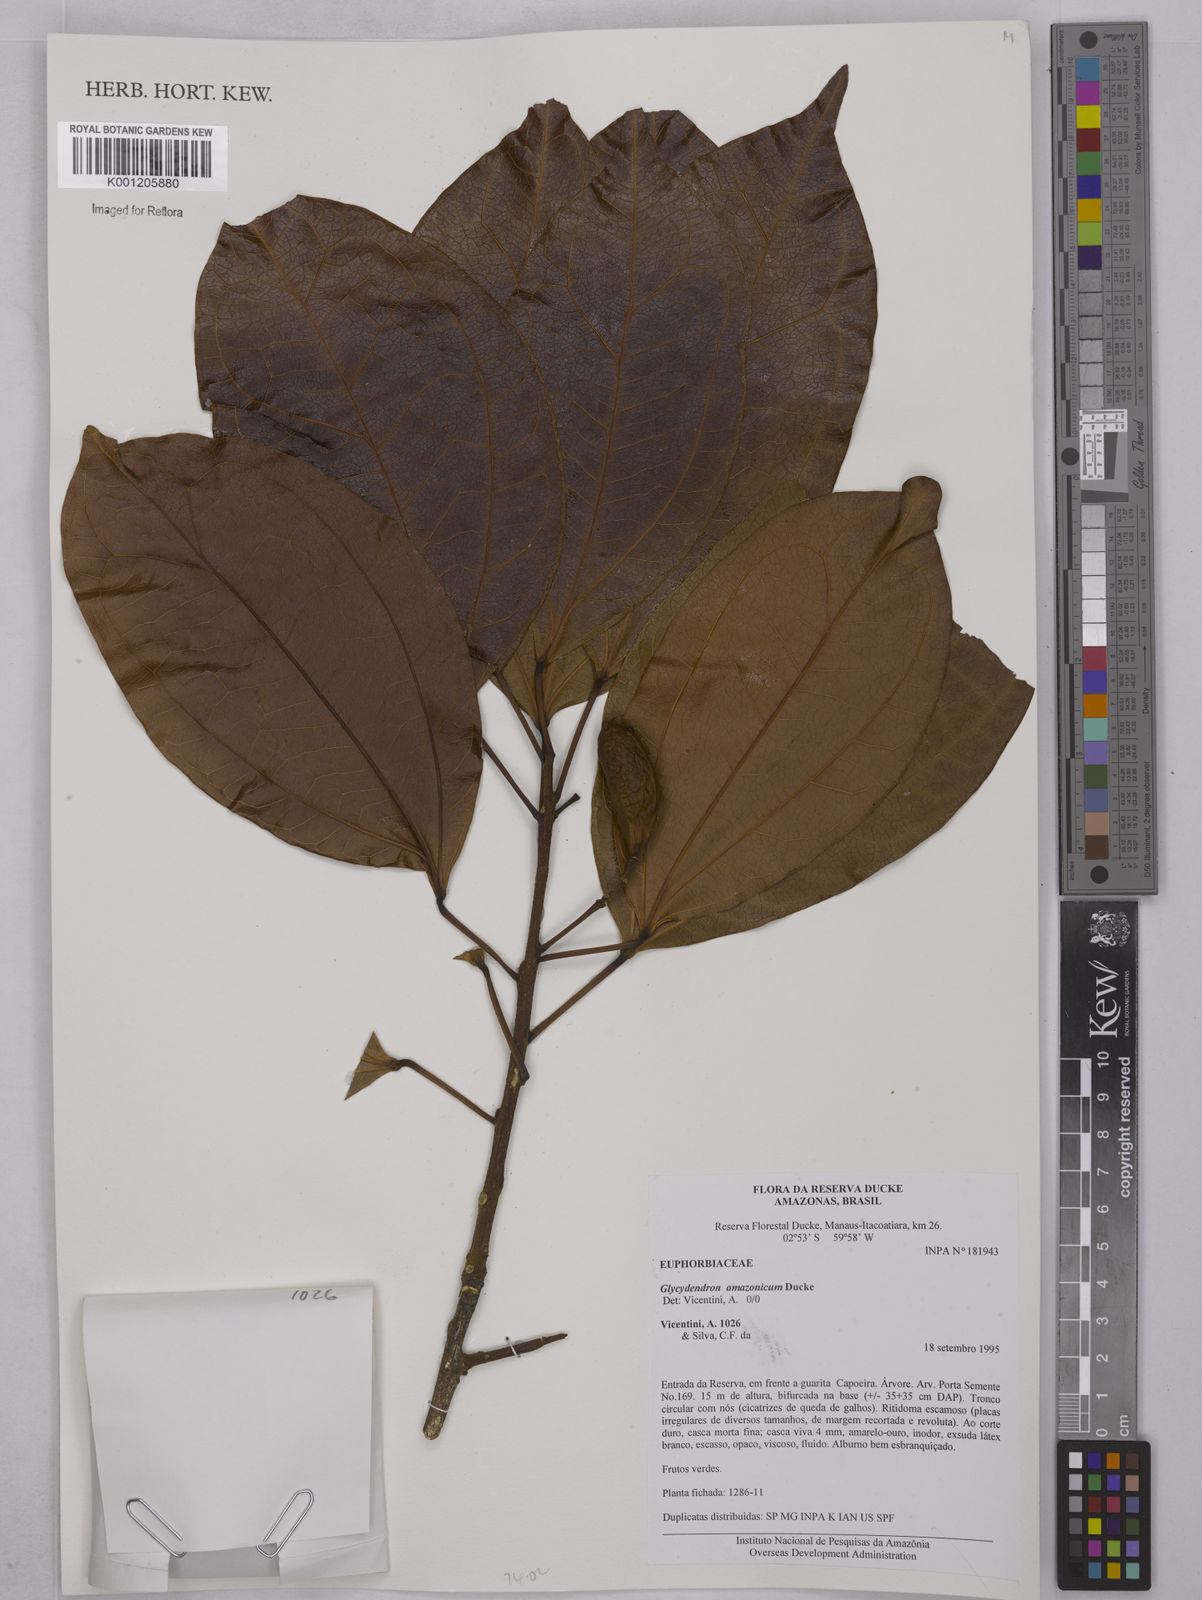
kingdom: Plantae
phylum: Tracheophyta
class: Magnoliopsida
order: Malpighiales
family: Euphorbiaceae
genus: Glycydendron
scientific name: Glycydendron amazonicum
